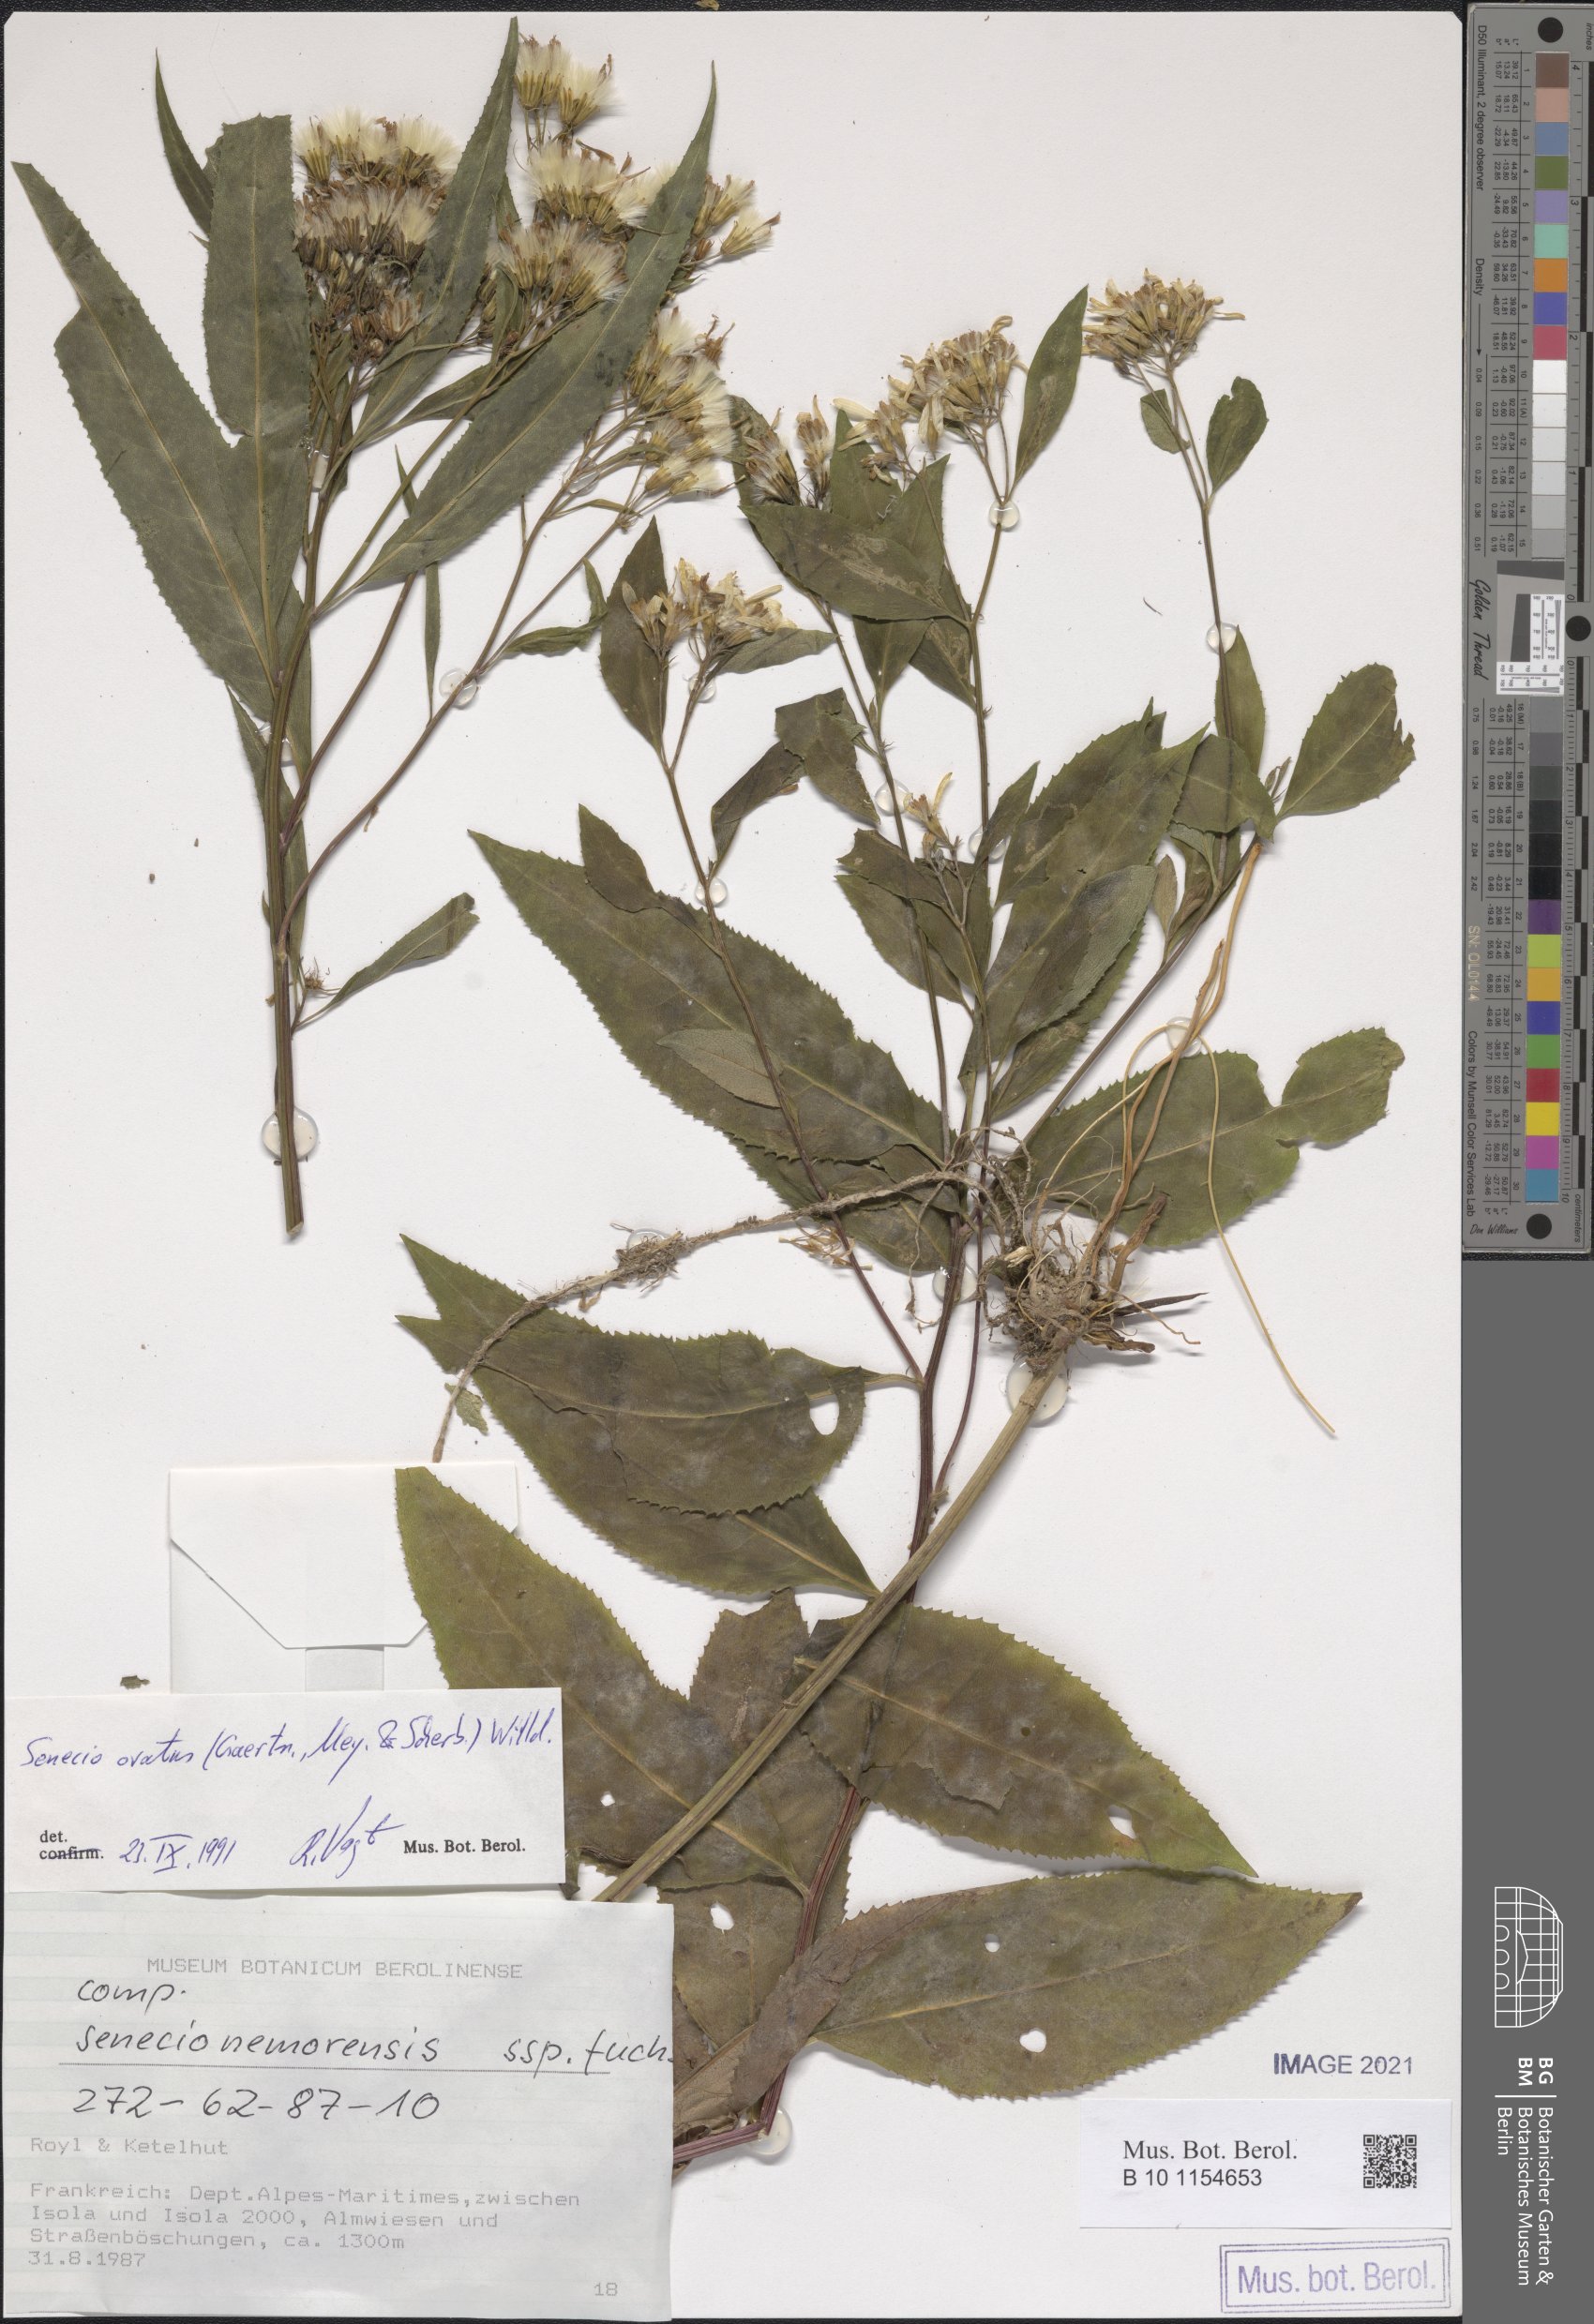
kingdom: Plantae
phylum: Tracheophyta
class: Magnoliopsida
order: Asterales
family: Asteraceae
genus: Senecio
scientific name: Senecio ovatus
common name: Wood ragwort
